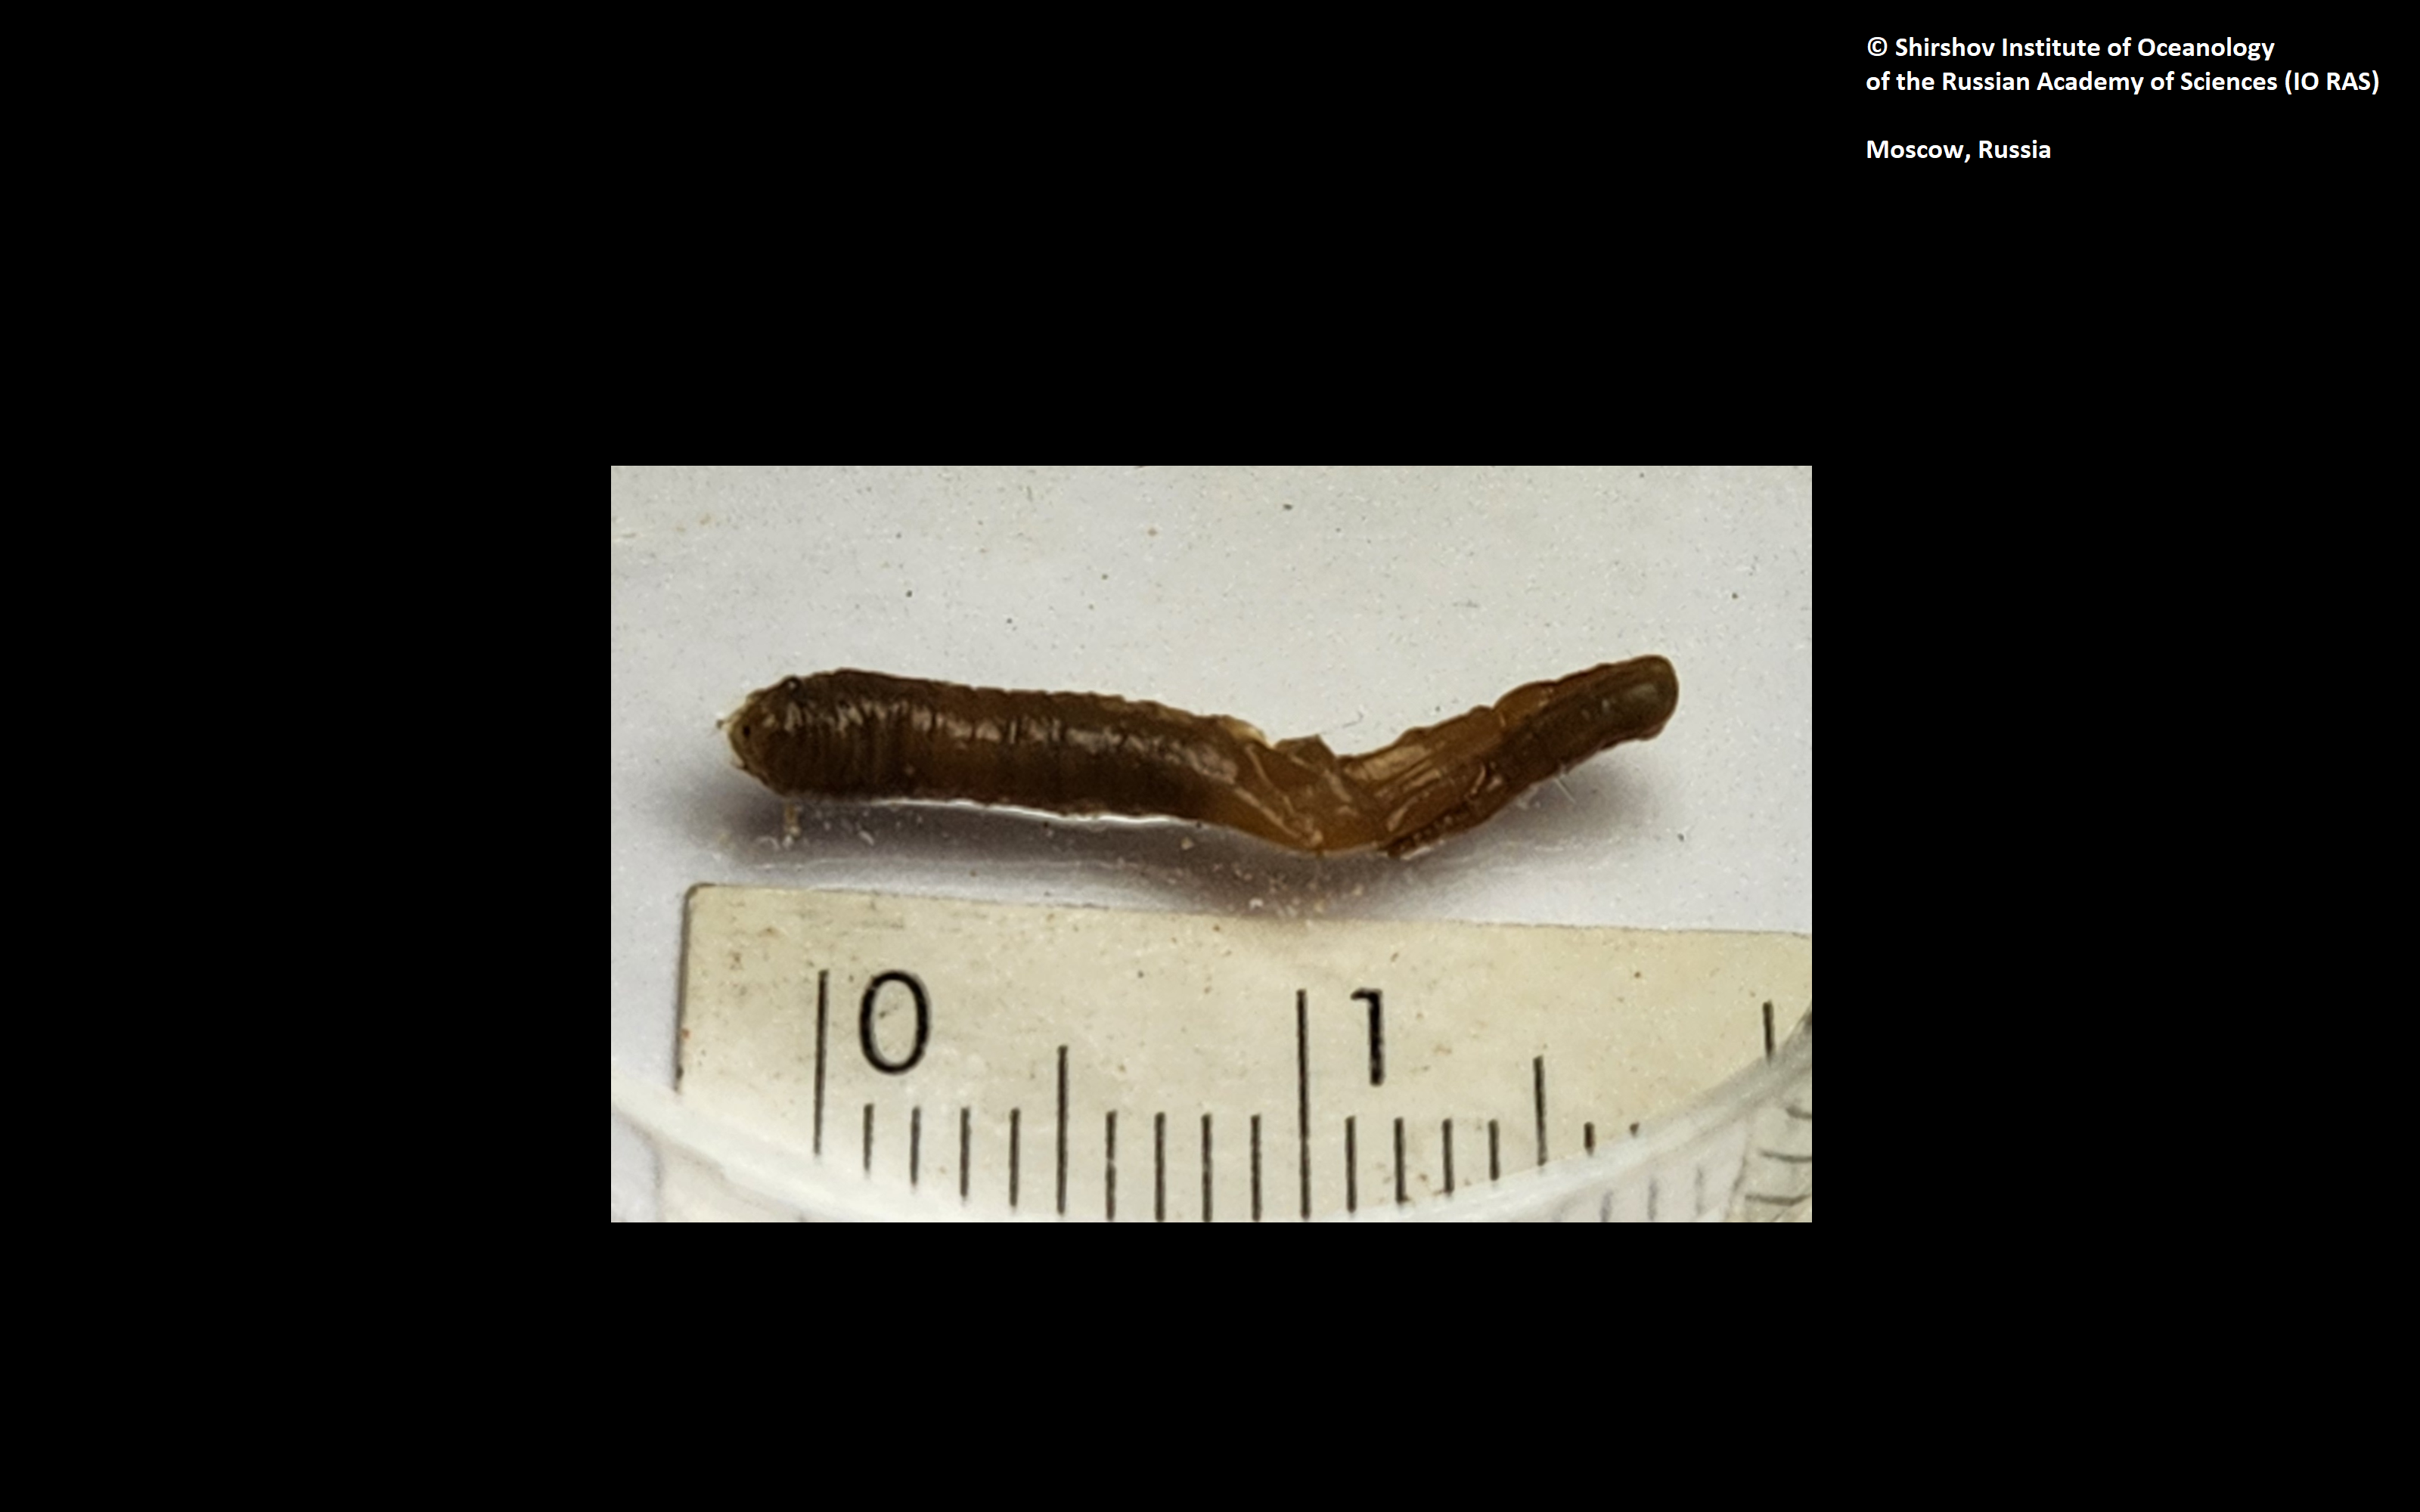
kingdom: Animalia
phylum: Annelida
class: Polychaeta
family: Ampharetidae
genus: Anobothrus
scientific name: Anobothrus mironovi
